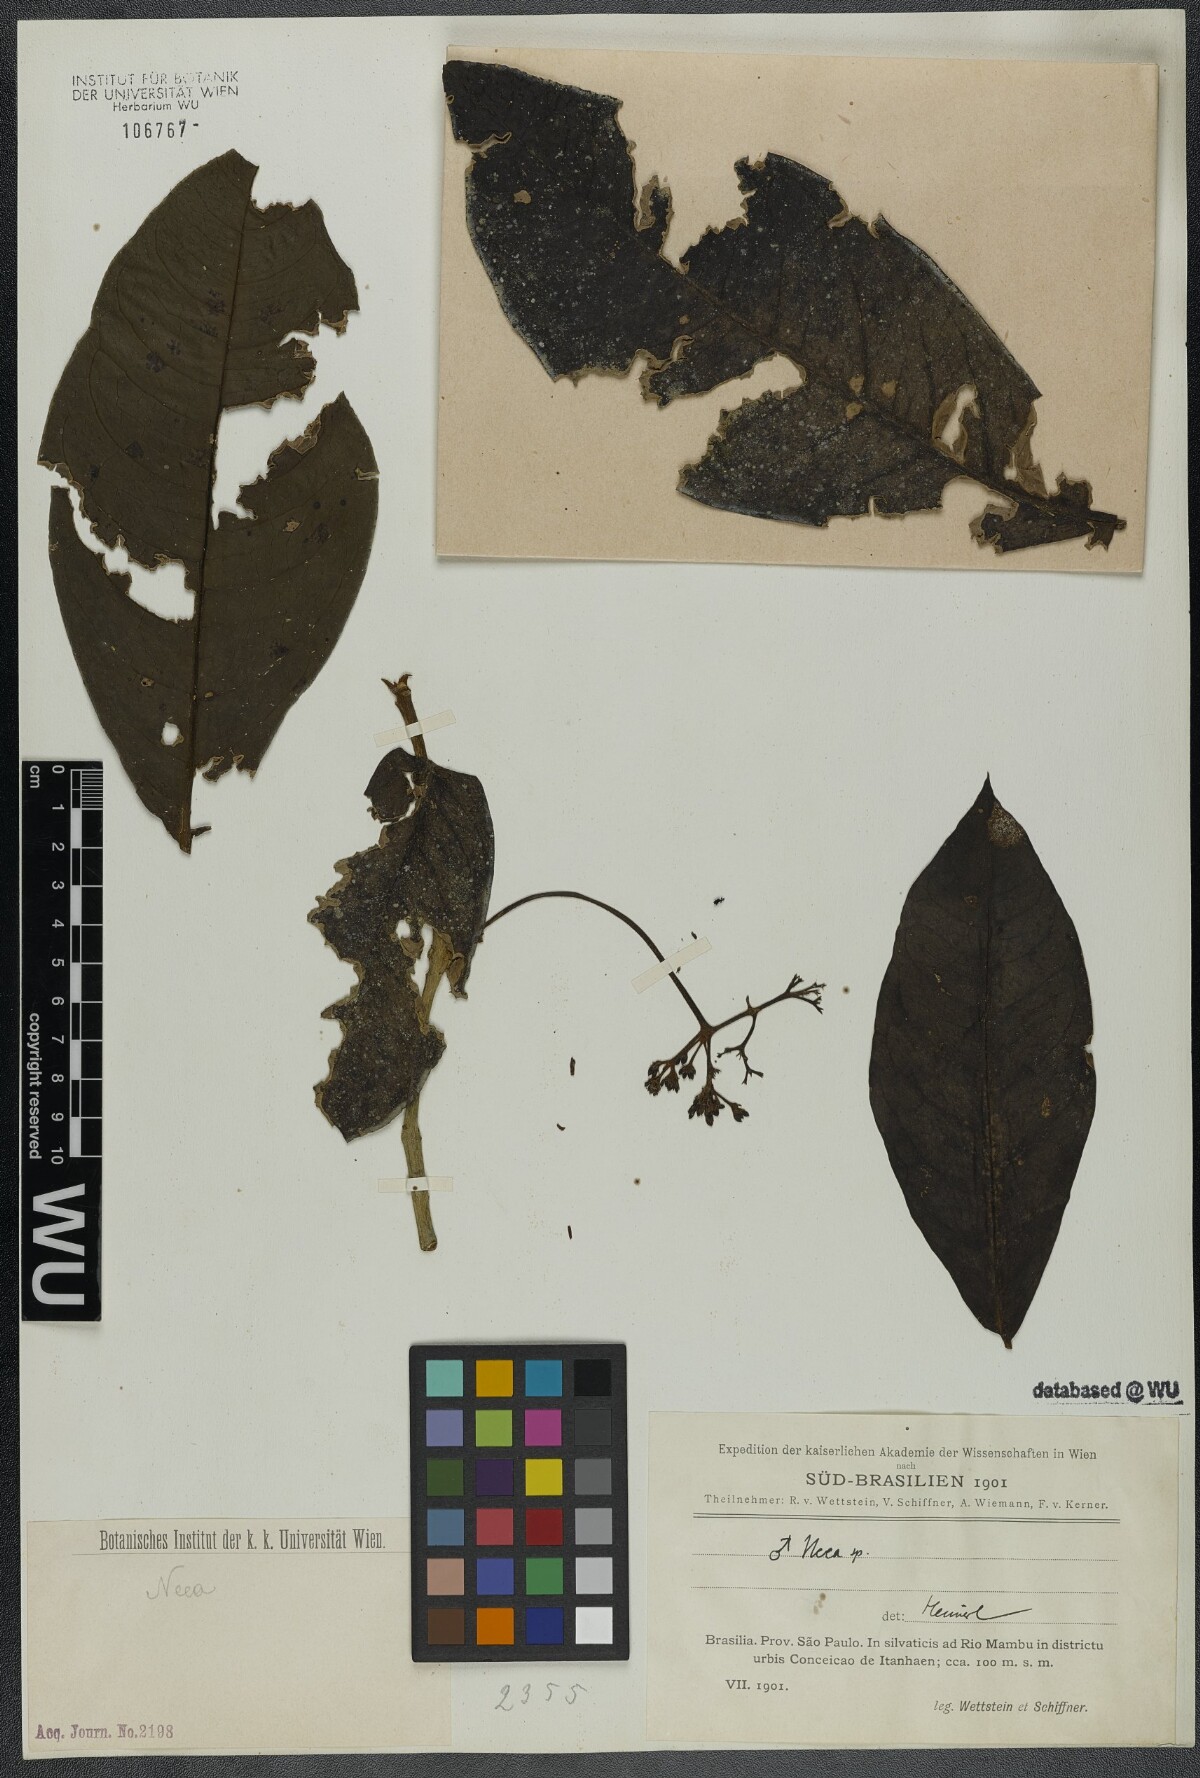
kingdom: Plantae
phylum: Tracheophyta
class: Magnoliopsida
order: Caryophyllales
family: Nyctaginaceae
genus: Neea
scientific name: Neea
